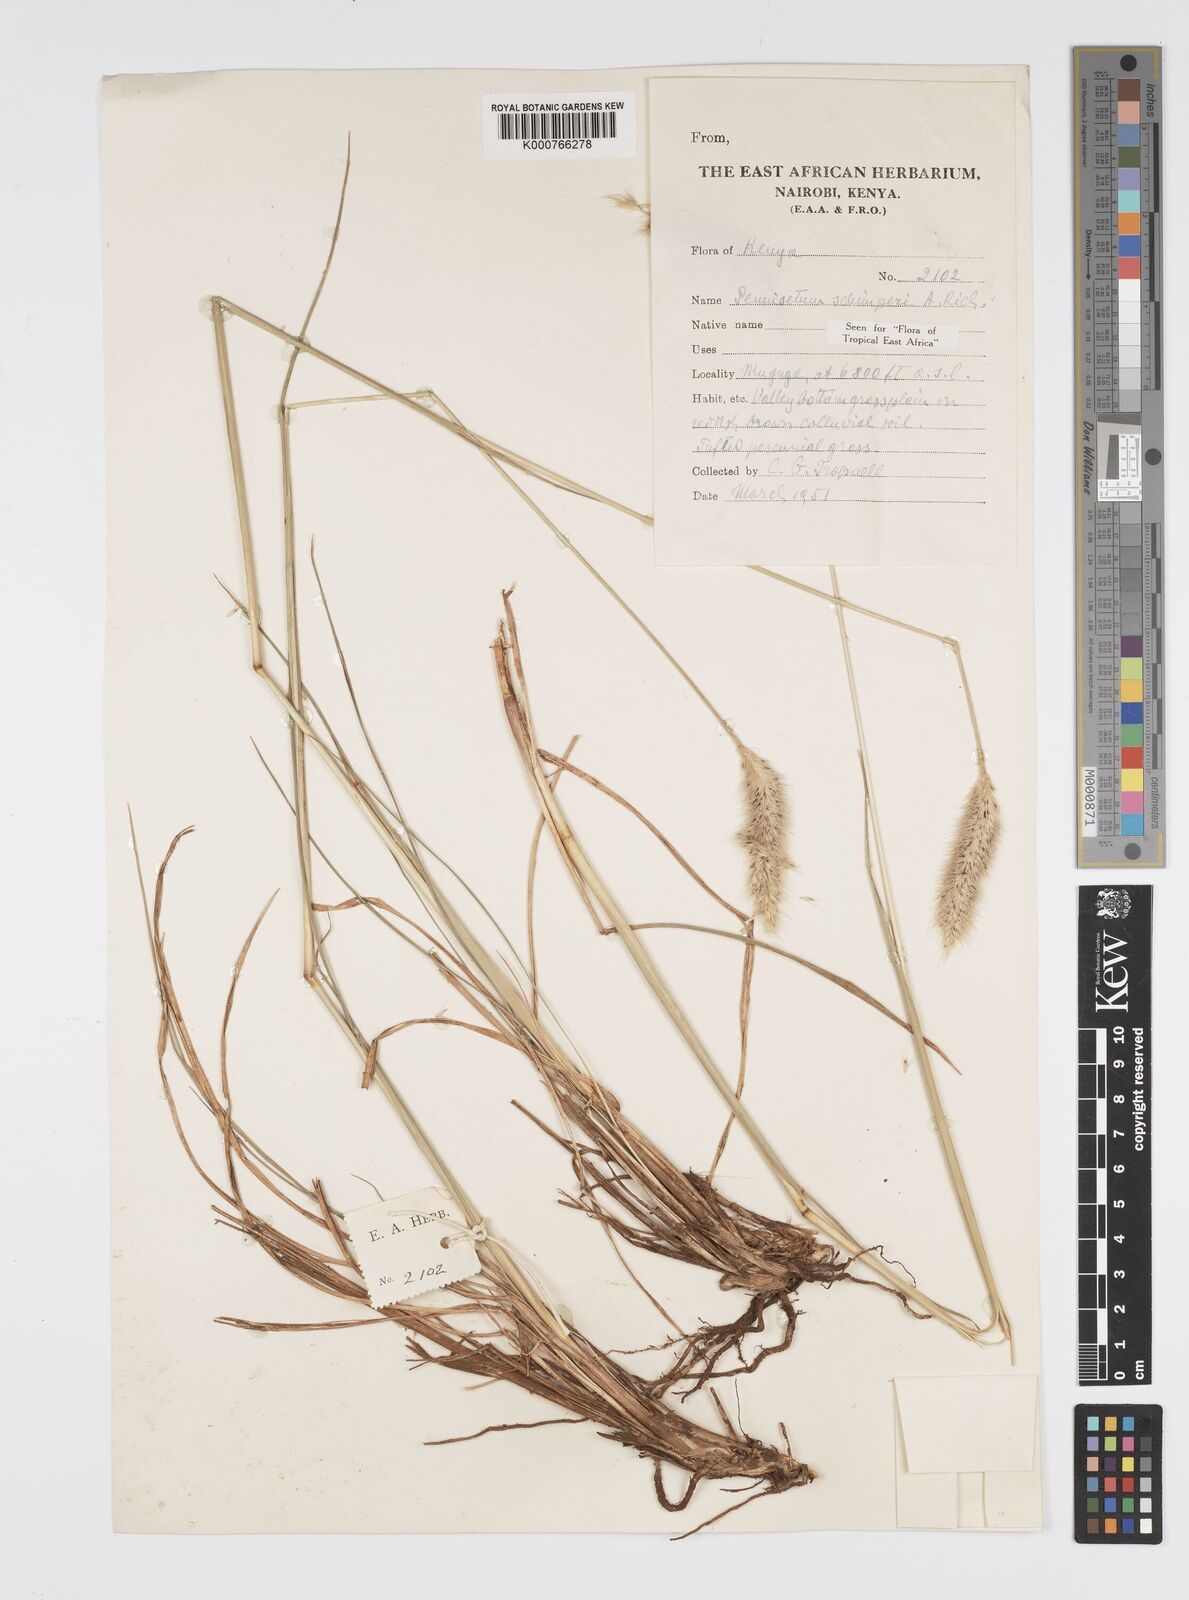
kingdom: Plantae
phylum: Tracheophyta
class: Liliopsida
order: Poales
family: Poaceae
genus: Cenchrus
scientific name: Cenchrus sphacelatus
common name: Bulgras
